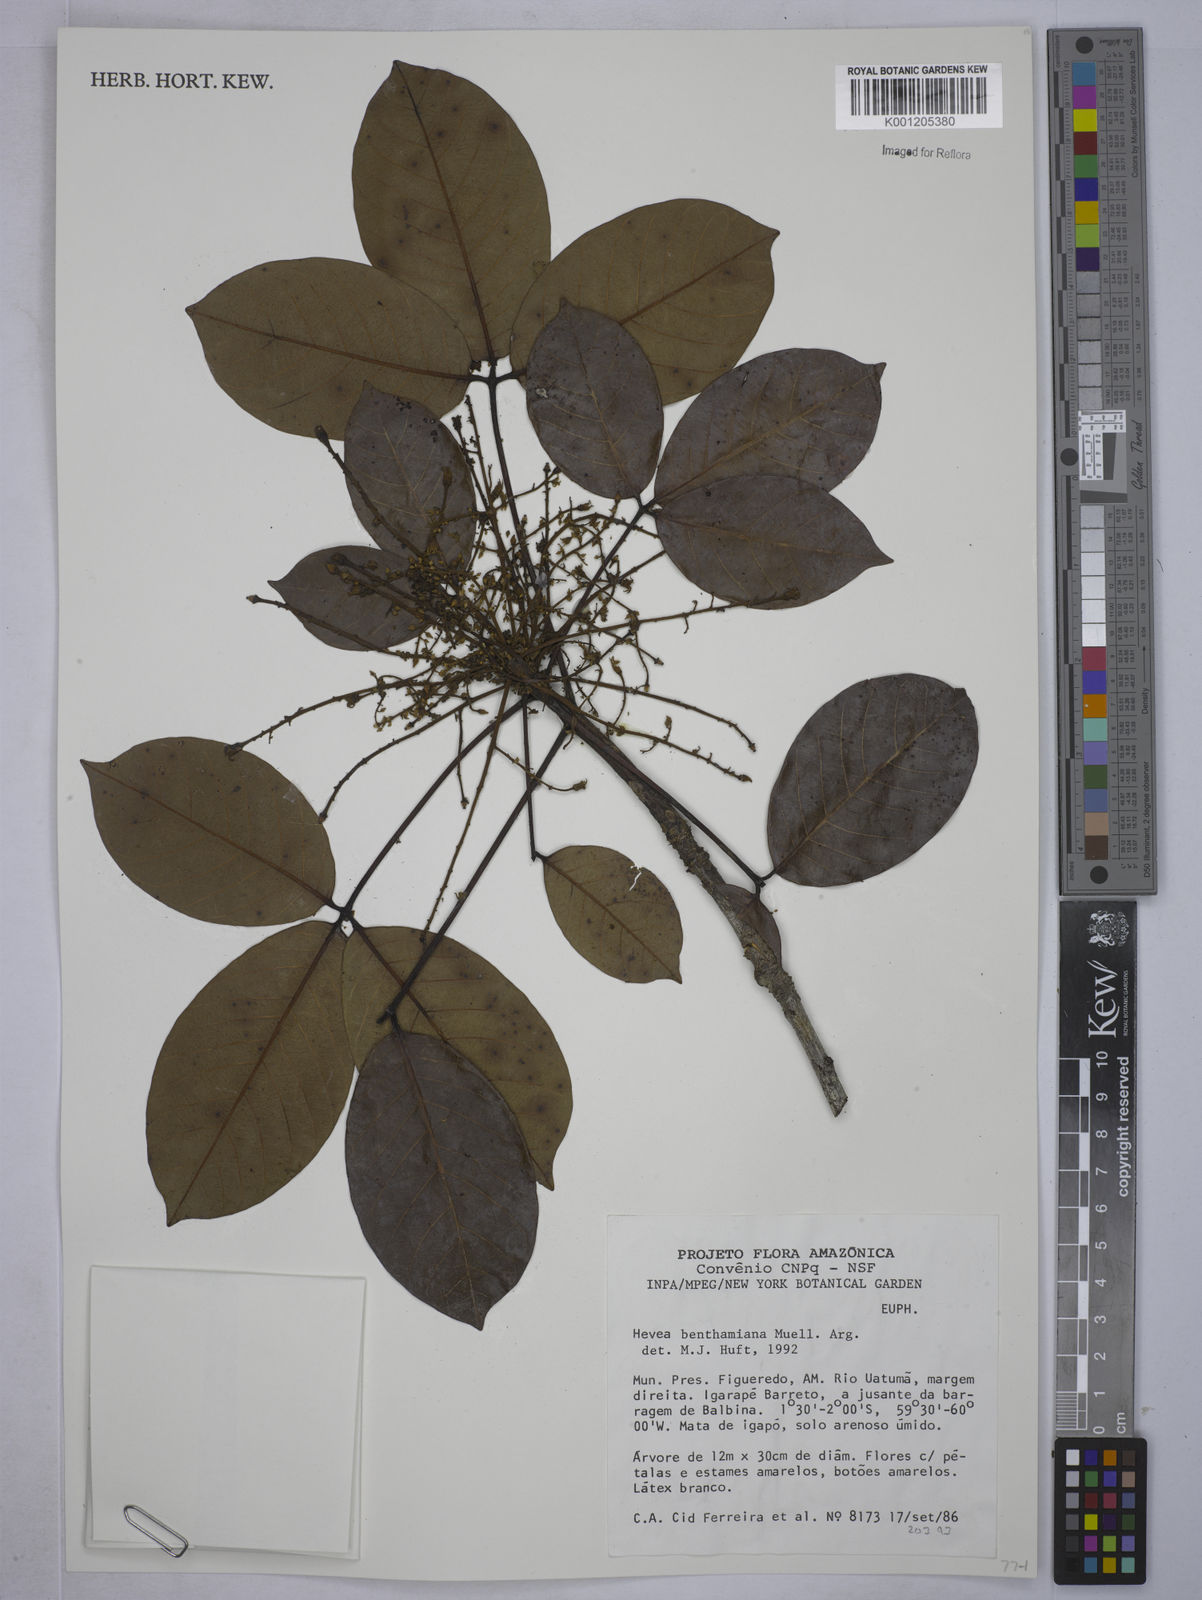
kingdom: Plantae
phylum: Tracheophyta
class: Magnoliopsida
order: Malpighiales
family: Euphorbiaceae
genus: Hevea
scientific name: Hevea
